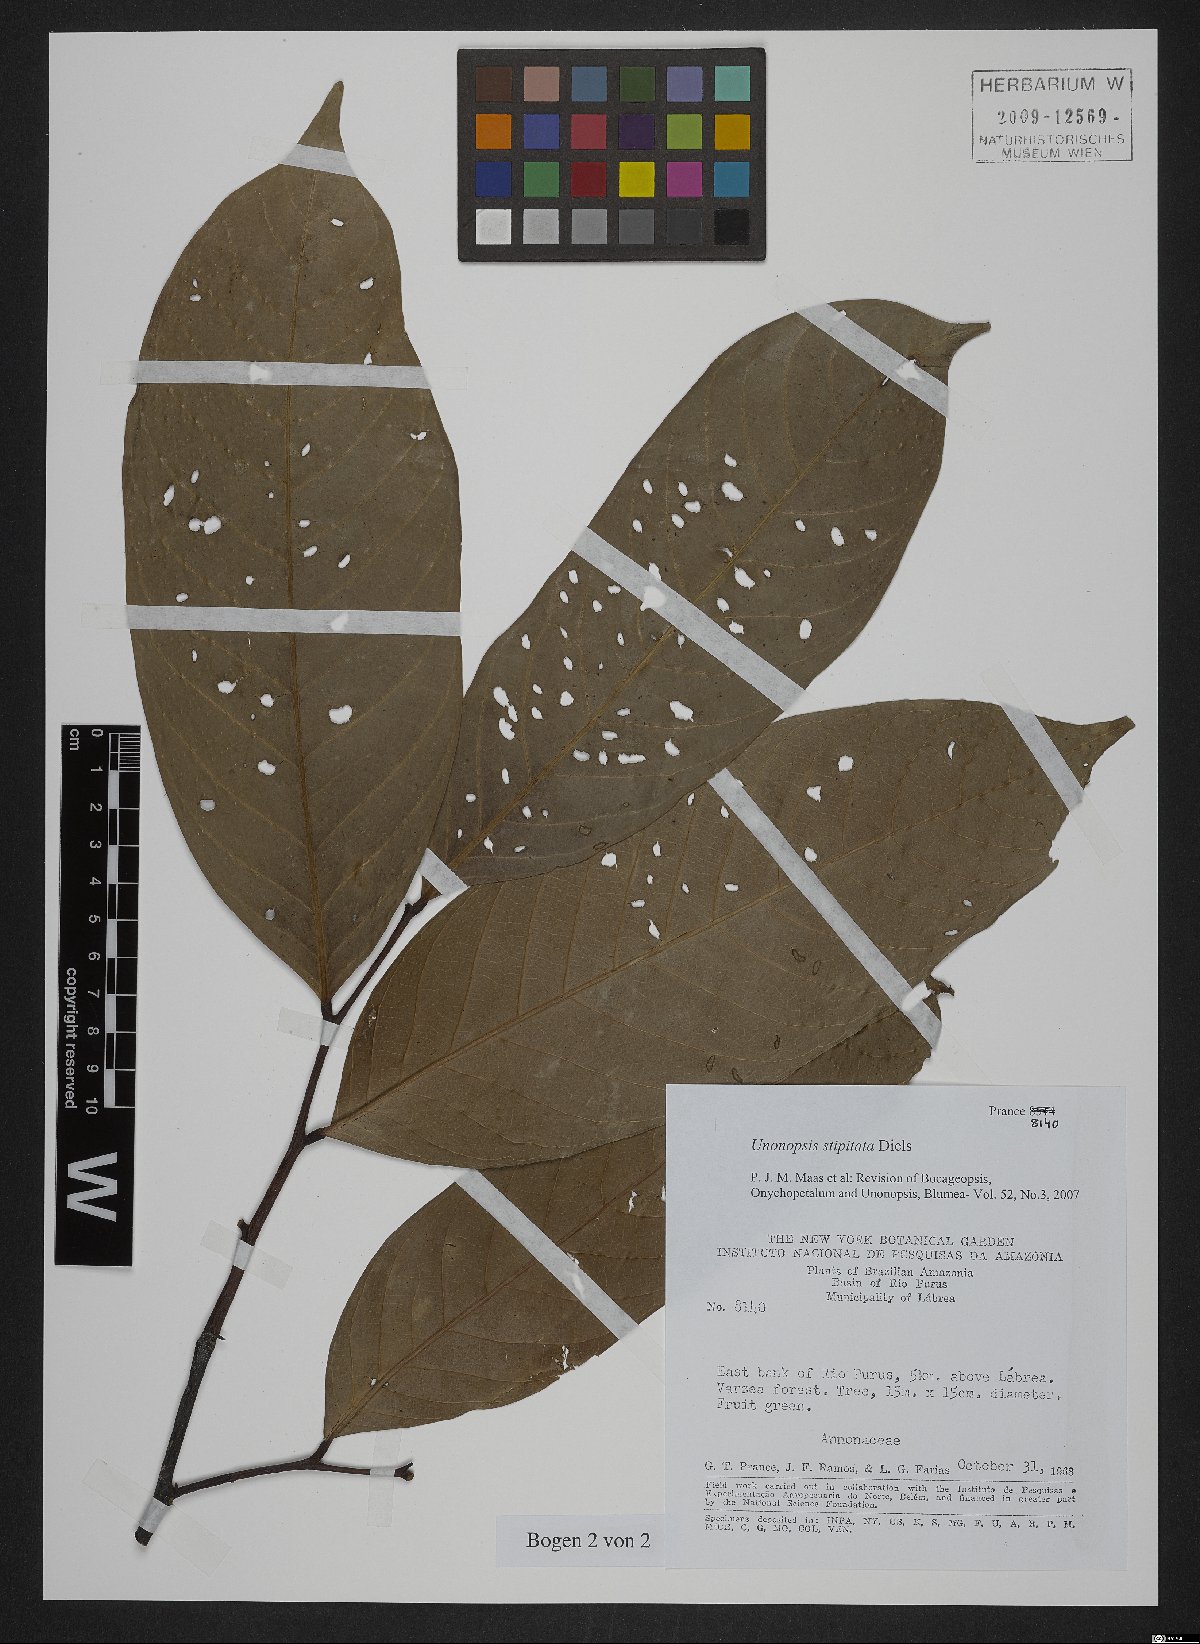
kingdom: Plantae
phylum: Tracheophyta
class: Magnoliopsida
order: Magnoliales
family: Annonaceae
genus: Unonopsis
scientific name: Unonopsis stipitata
